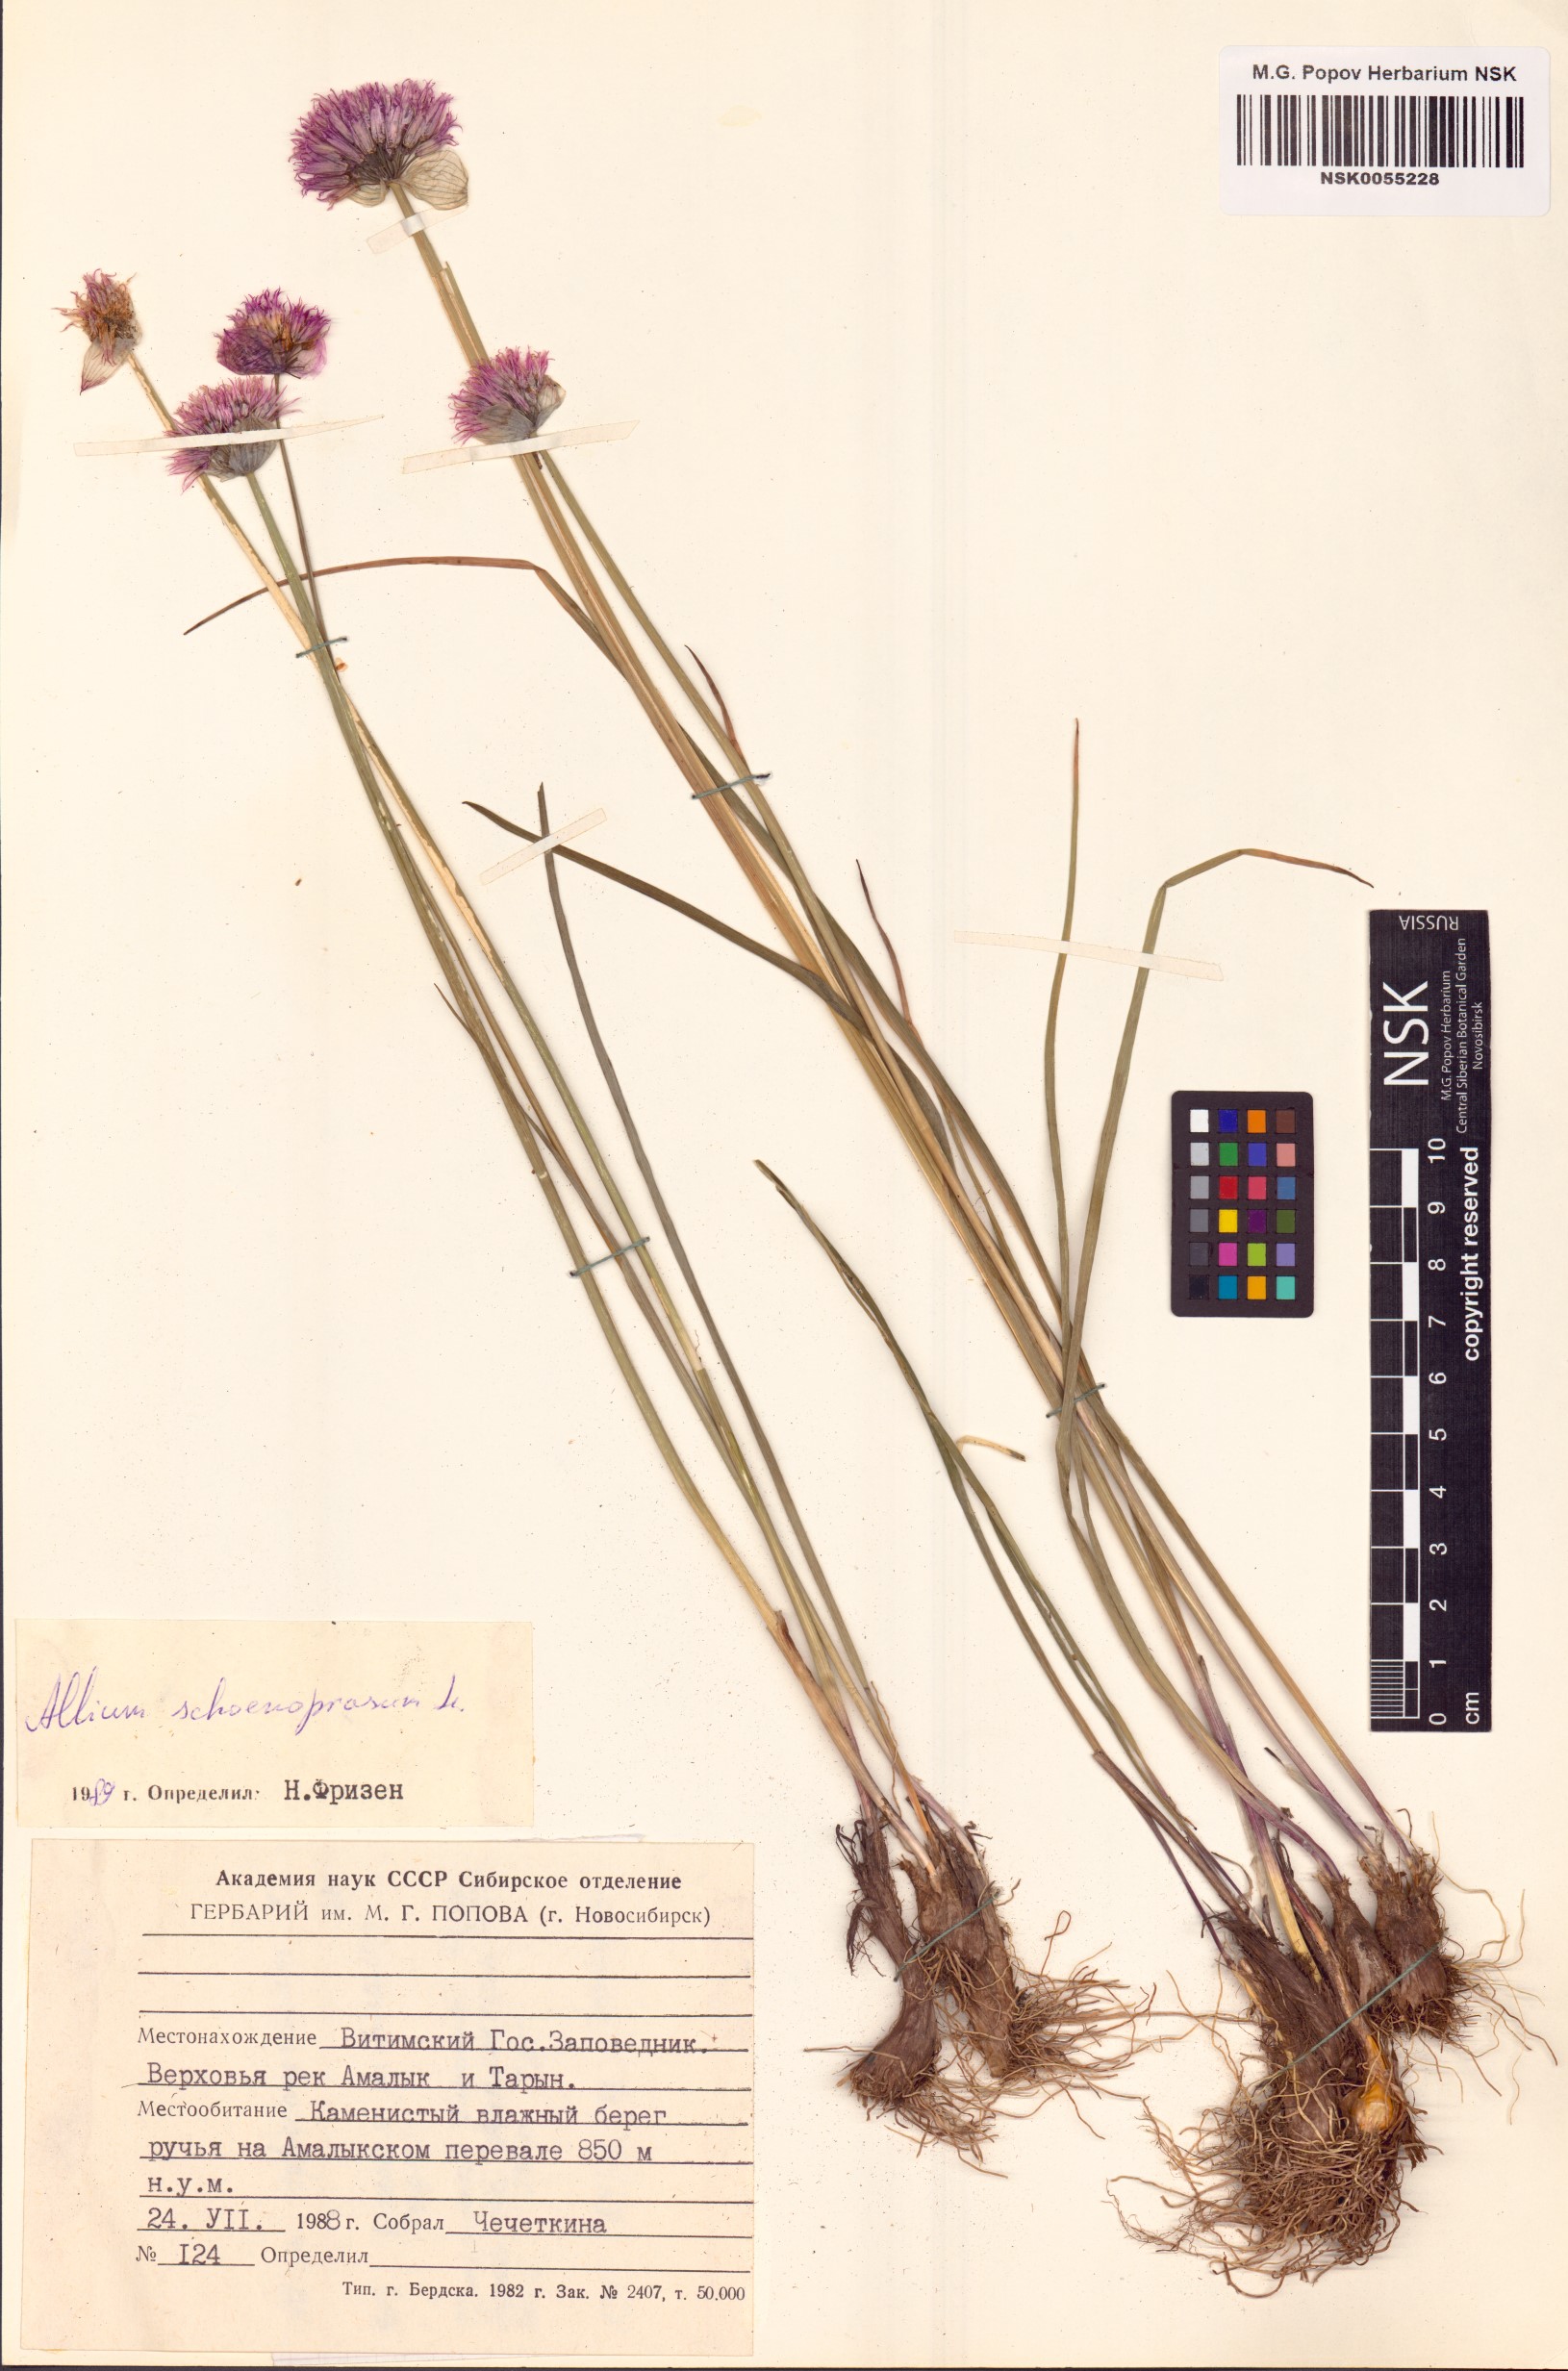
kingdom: Plantae
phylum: Tracheophyta
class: Liliopsida
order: Asparagales
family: Amaryllidaceae
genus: Allium
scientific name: Allium schoenoprasum
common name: Chives
